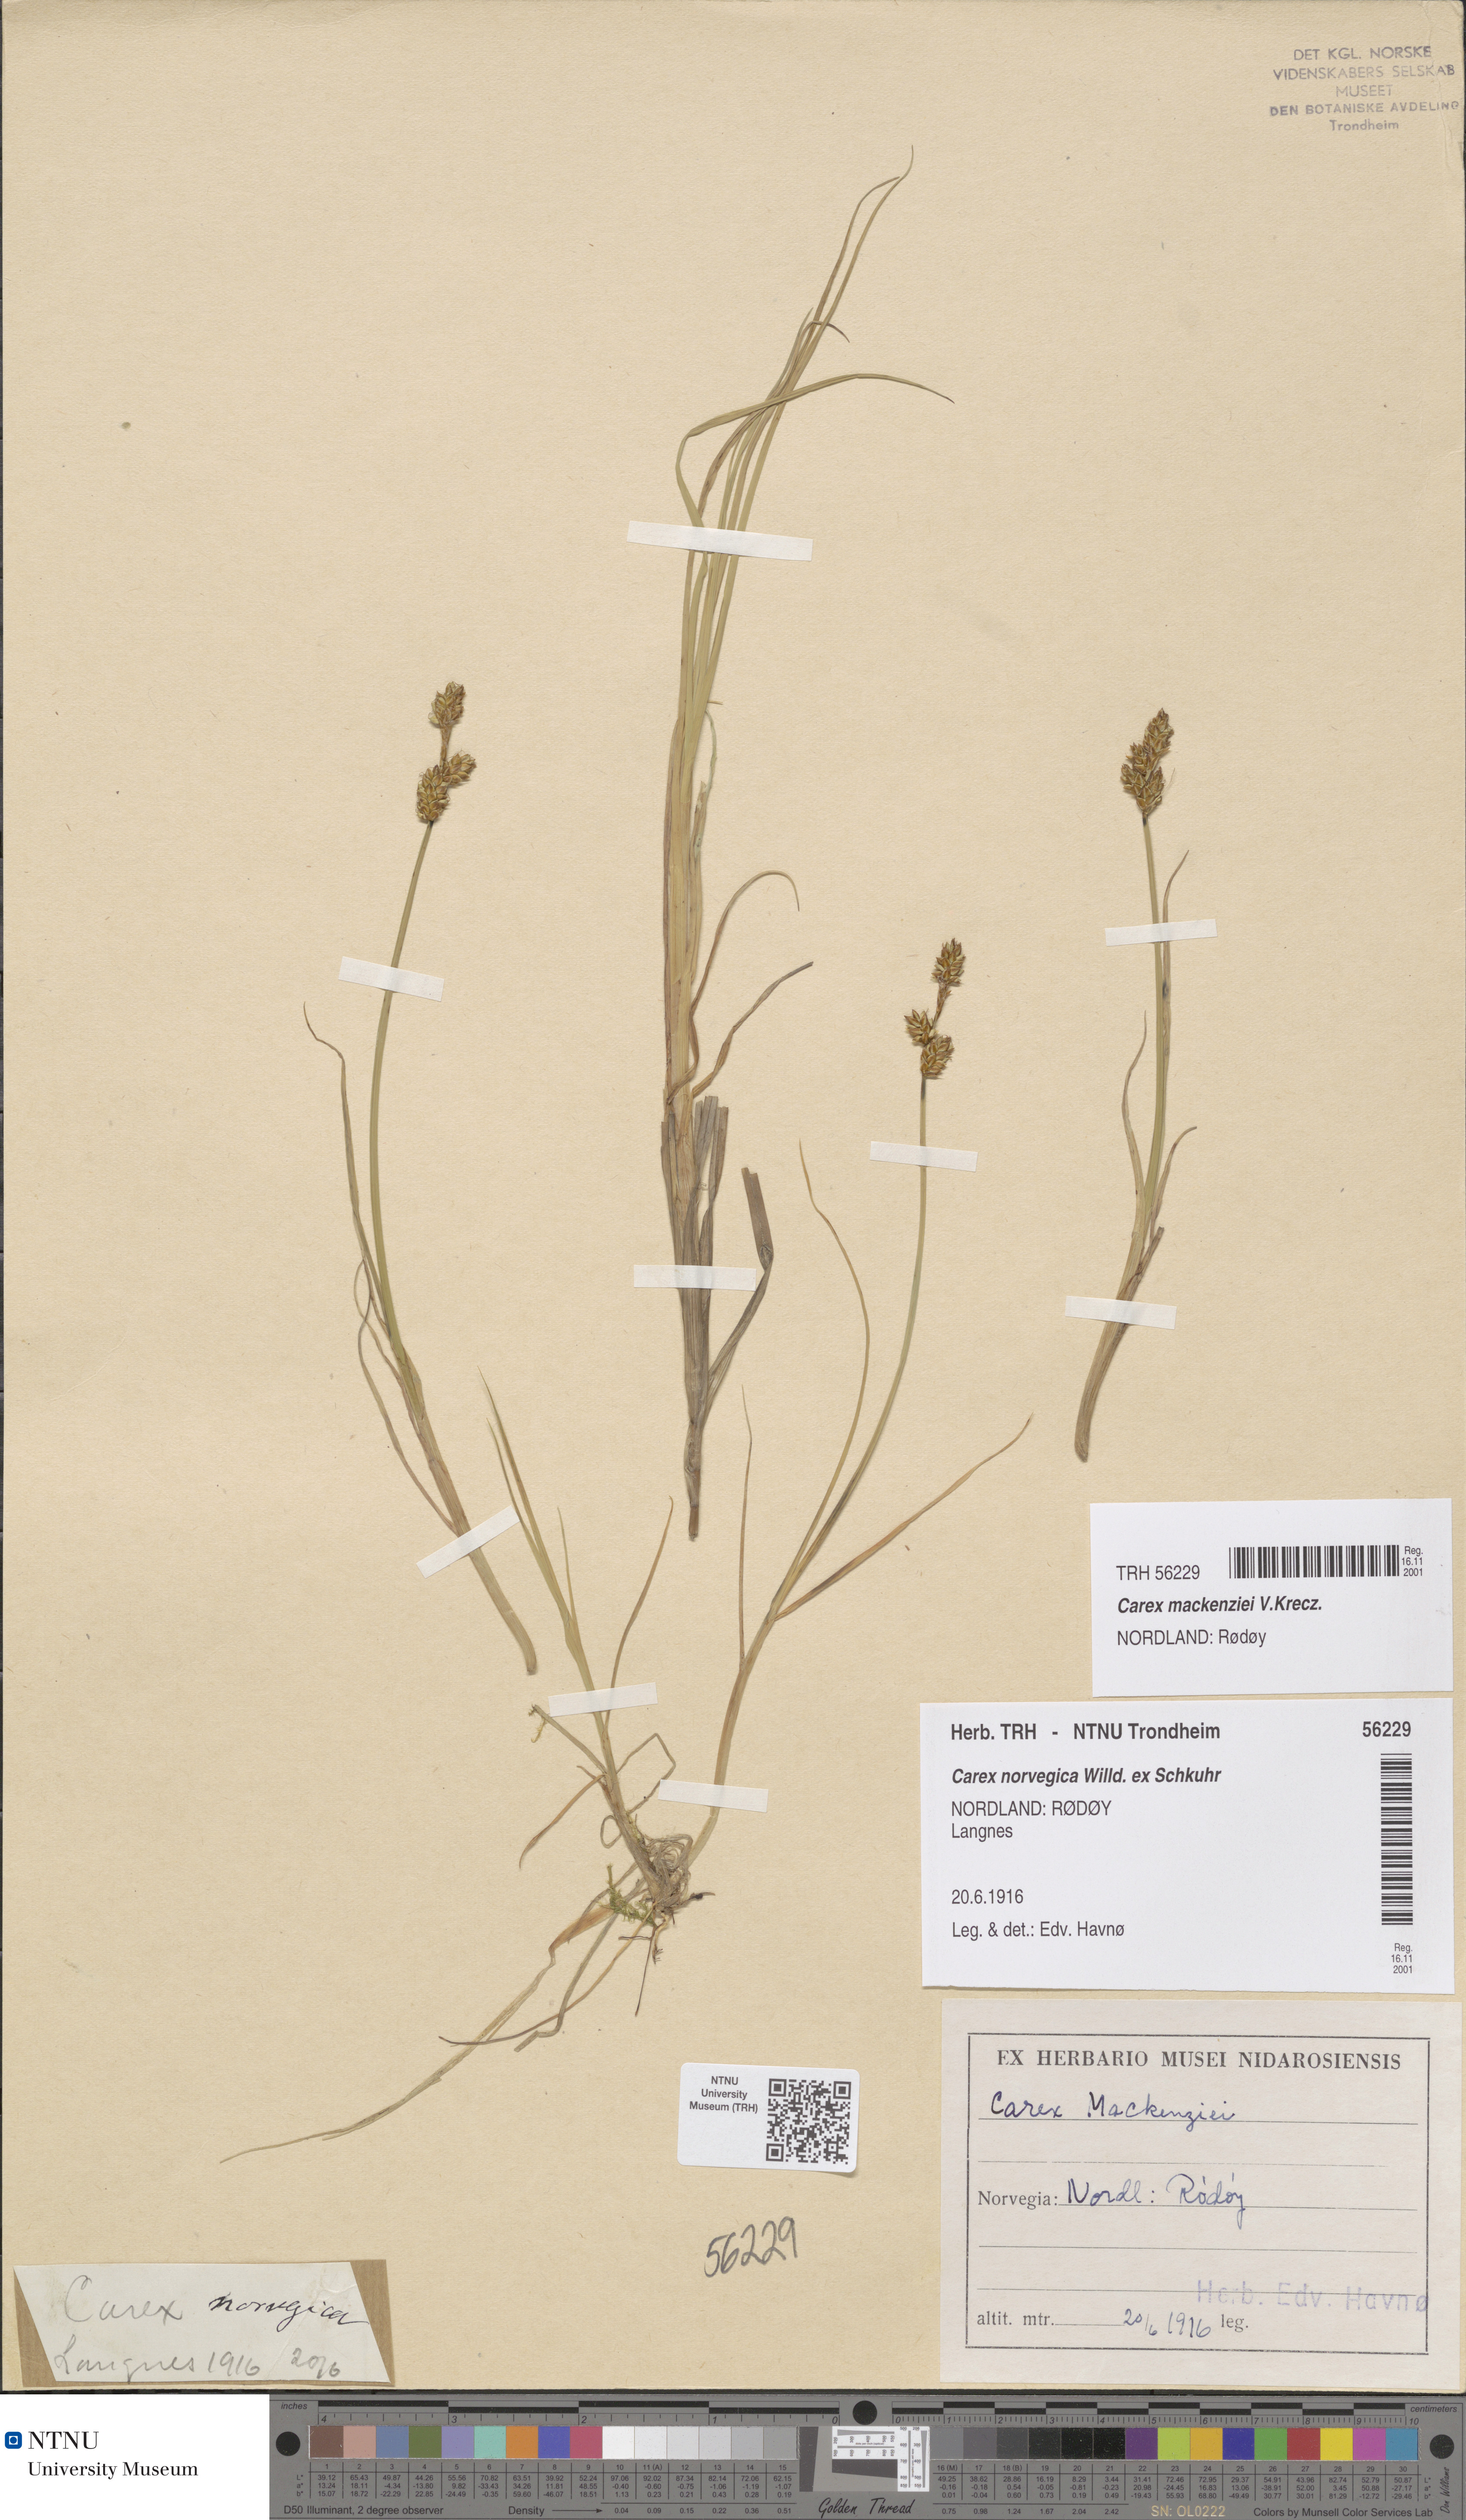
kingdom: Plantae
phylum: Tracheophyta
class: Liliopsida
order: Poales
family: Cyperaceae
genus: Carex
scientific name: Carex mackenziei
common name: Mackenzie's sedge
